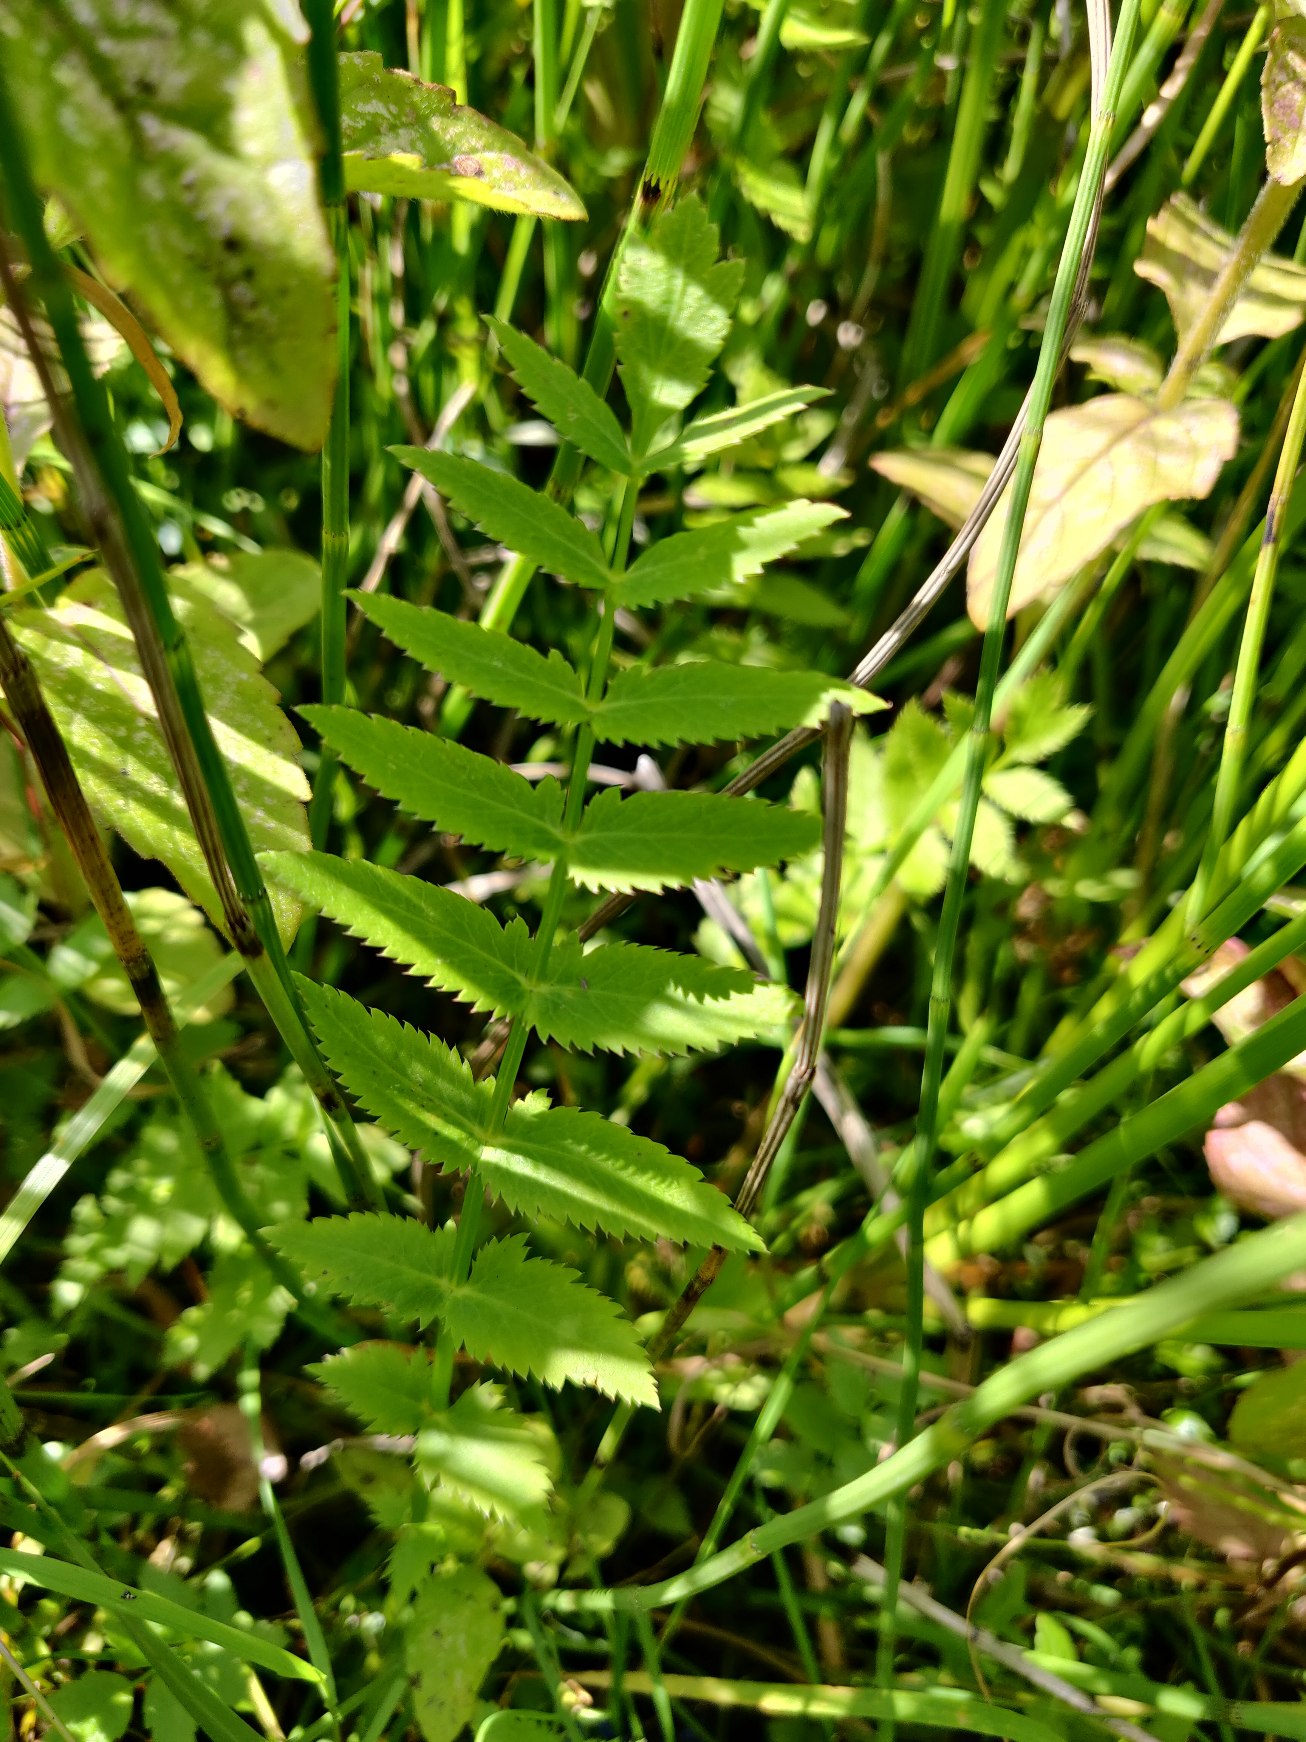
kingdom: Plantae
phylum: Tracheophyta
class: Magnoliopsida
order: Apiales
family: Apiaceae
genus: Berula
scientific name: Berula erecta
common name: Sideskærm
